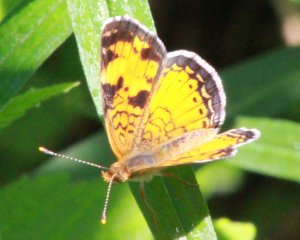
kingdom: Animalia
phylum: Arthropoda
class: Insecta
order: Lepidoptera
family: Nymphalidae
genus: Phyciodes
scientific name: Phyciodes tharos
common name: Northern Crescent
